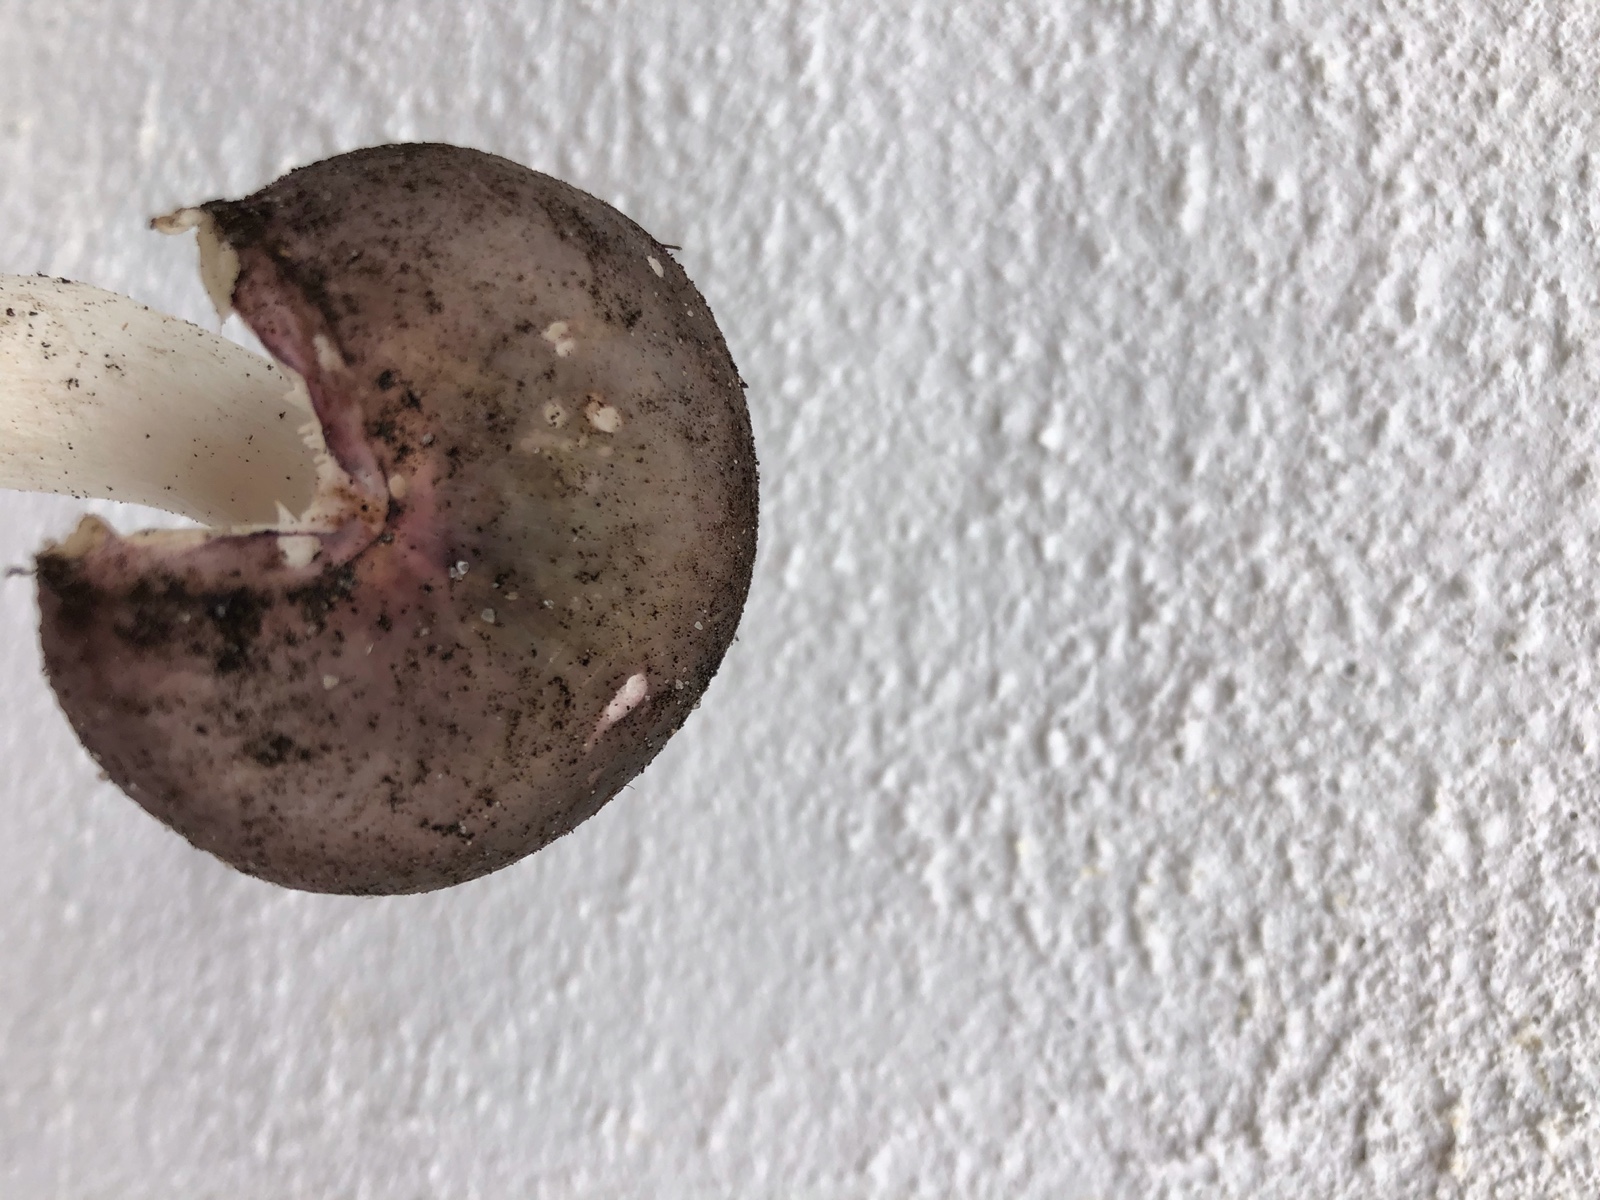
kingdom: Fungi
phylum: Basidiomycota
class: Agaricomycetes
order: Russulales
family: Russulaceae
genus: Russula
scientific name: Russula cyanoxantha
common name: broget skørhat
